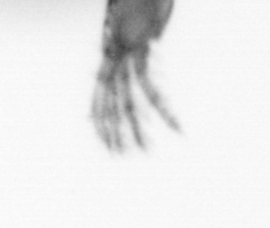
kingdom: Animalia
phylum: Arthropoda
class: Copepoda
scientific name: Copepoda
